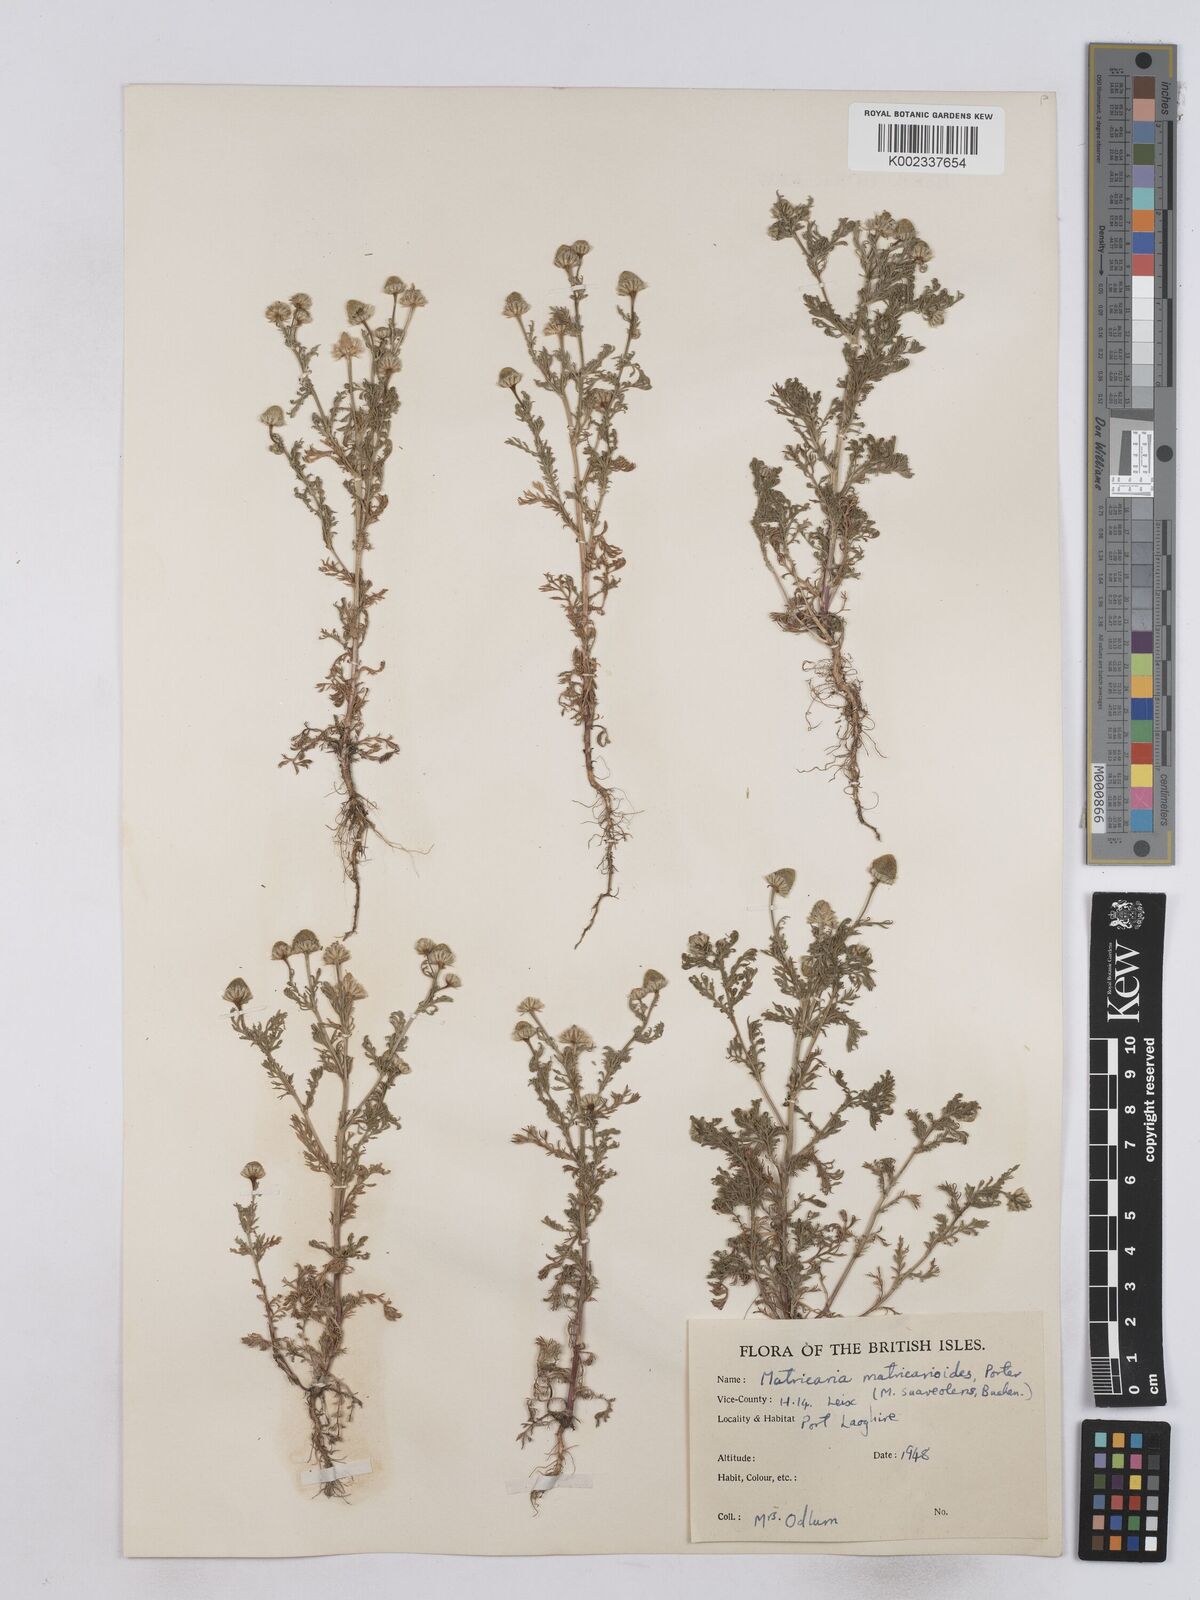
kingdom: Plantae
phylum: Tracheophyta
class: Magnoliopsida
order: Asterales
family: Asteraceae
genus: Matricaria
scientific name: Matricaria discoidea
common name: Disc mayweed
